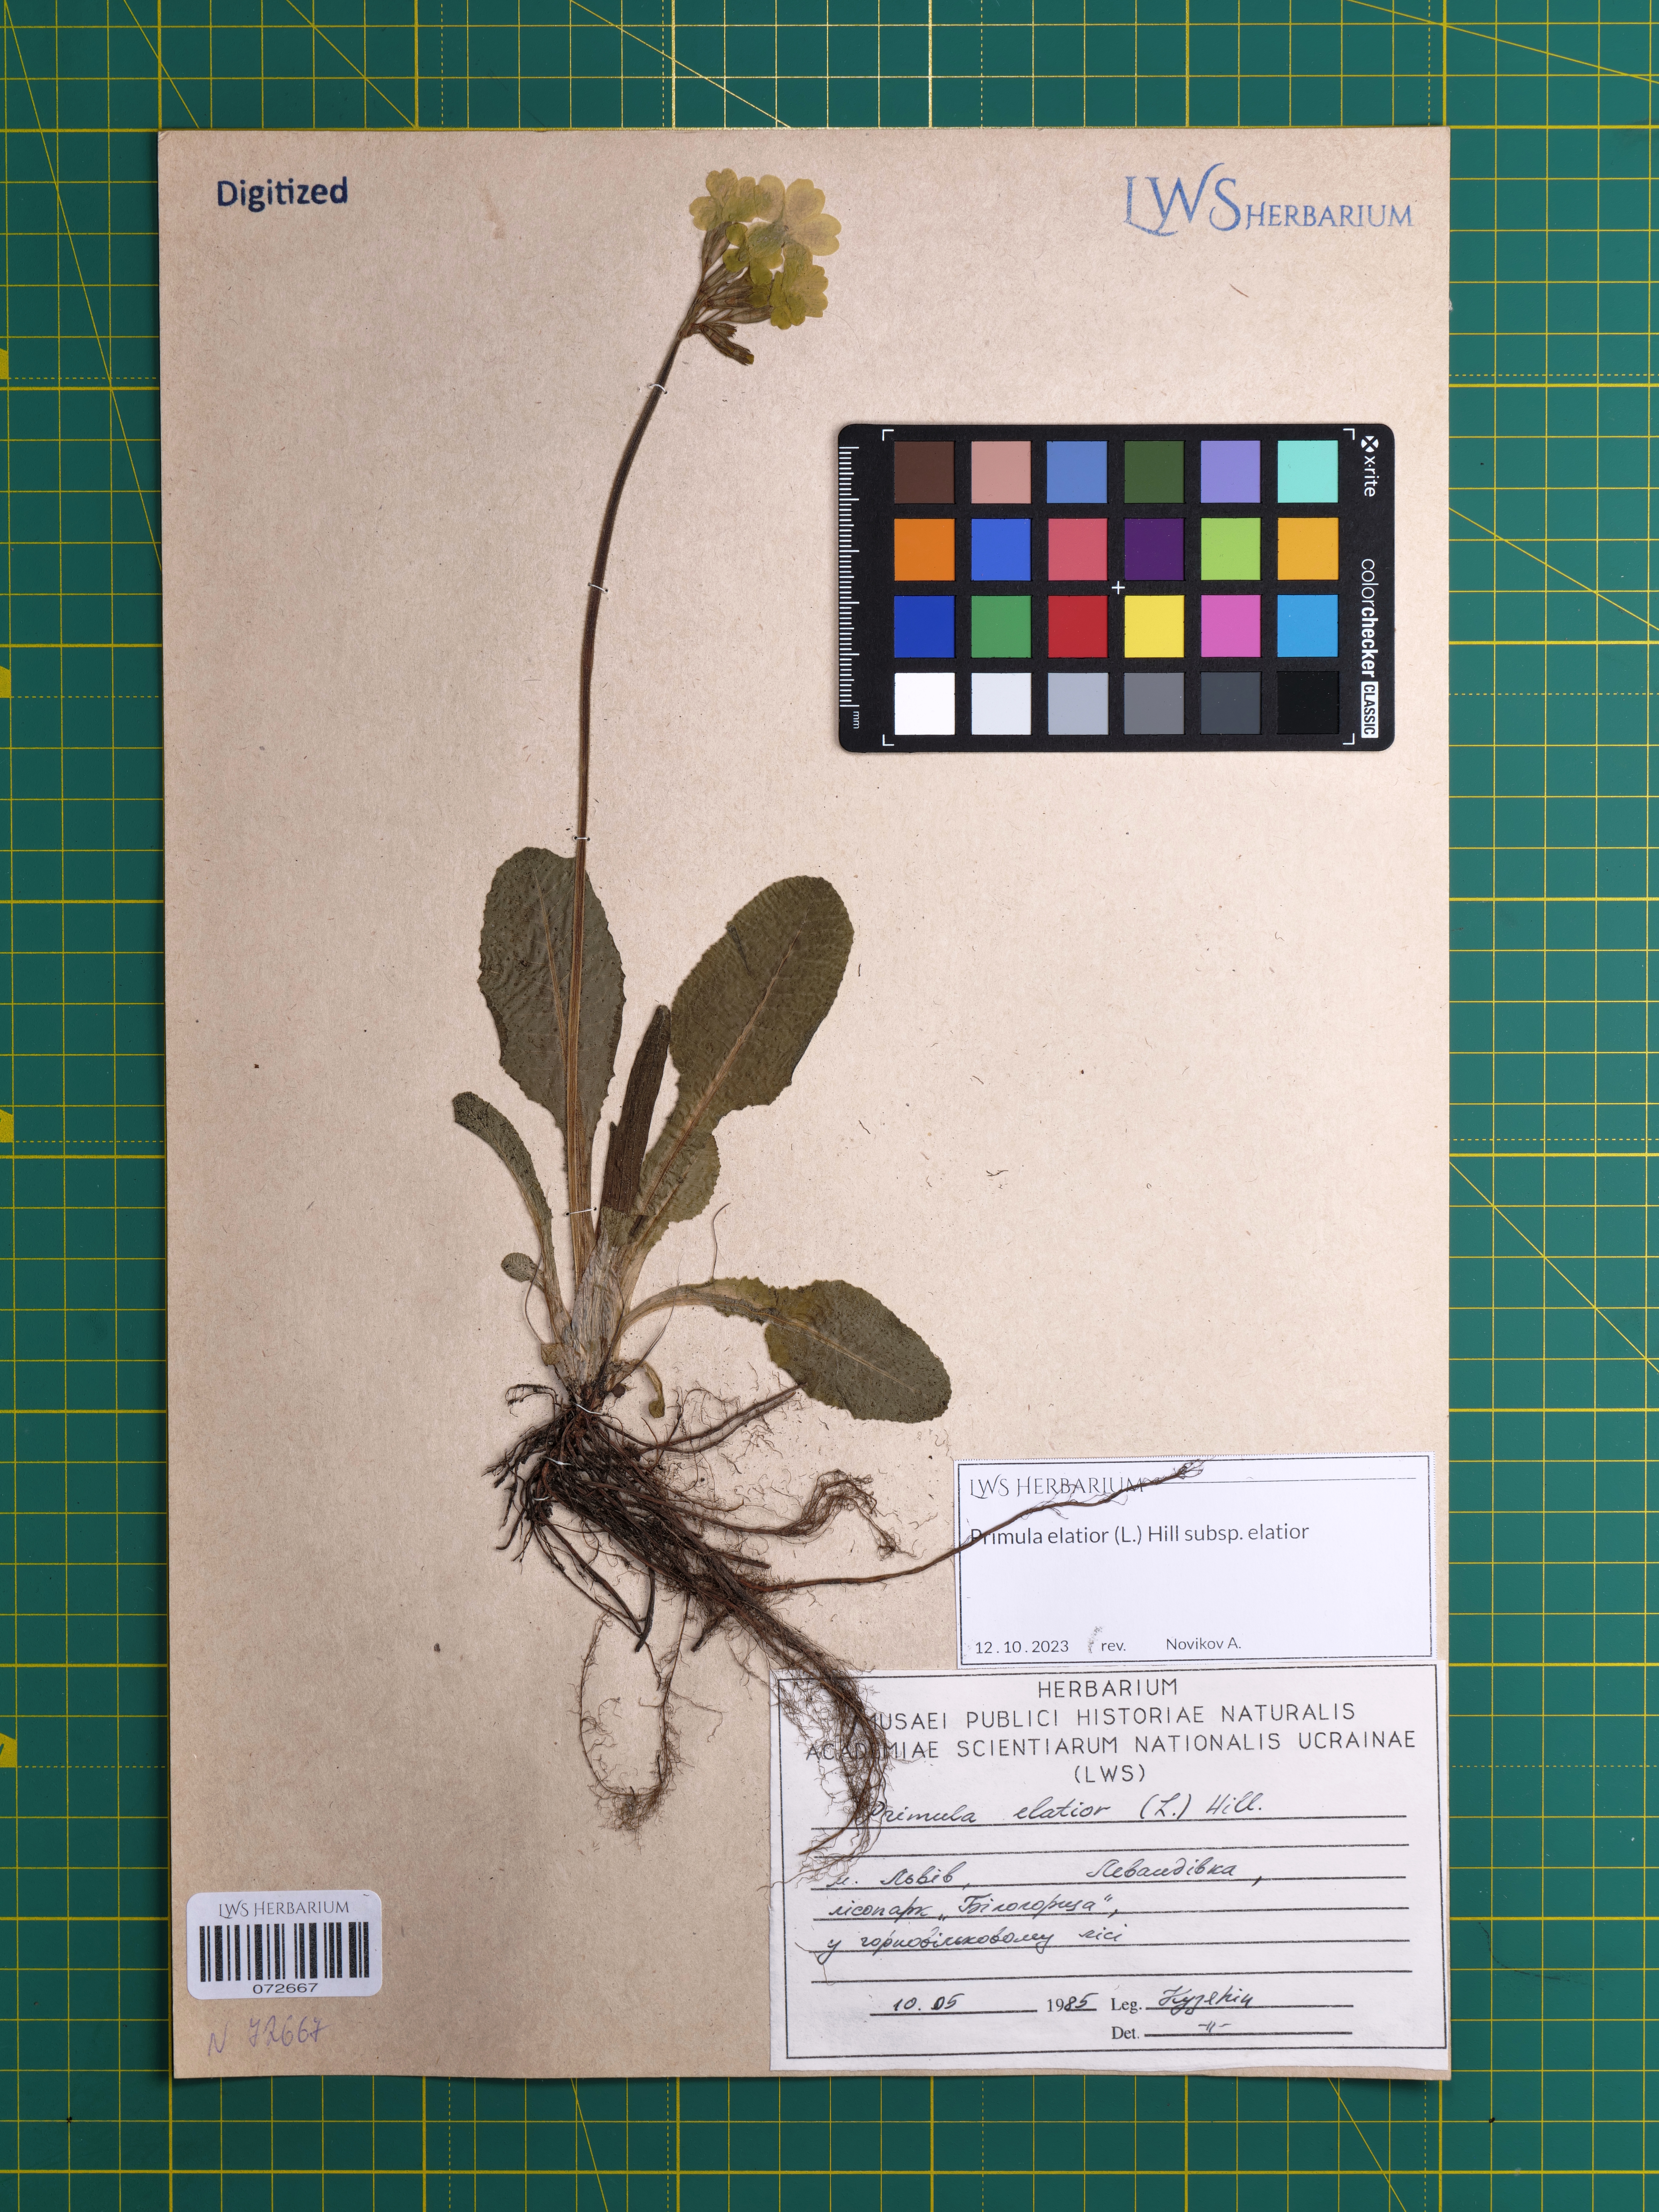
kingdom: Plantae
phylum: Tracheophyta
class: Magnoliopsida
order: Ericales
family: Primulaceae
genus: Primula
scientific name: Primula elatior
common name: Oxlip
